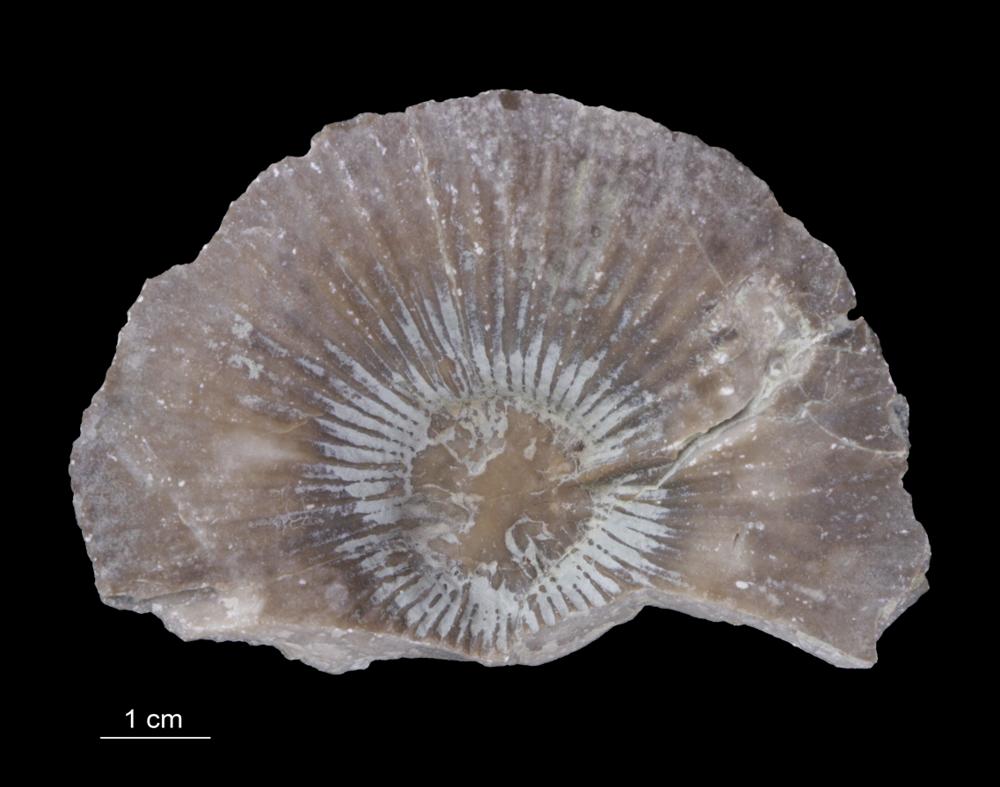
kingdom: Animalia
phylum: Cnidaria
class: Anthozoa
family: Ketophyllidae
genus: Omphyma
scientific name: Omphyma turbinata
